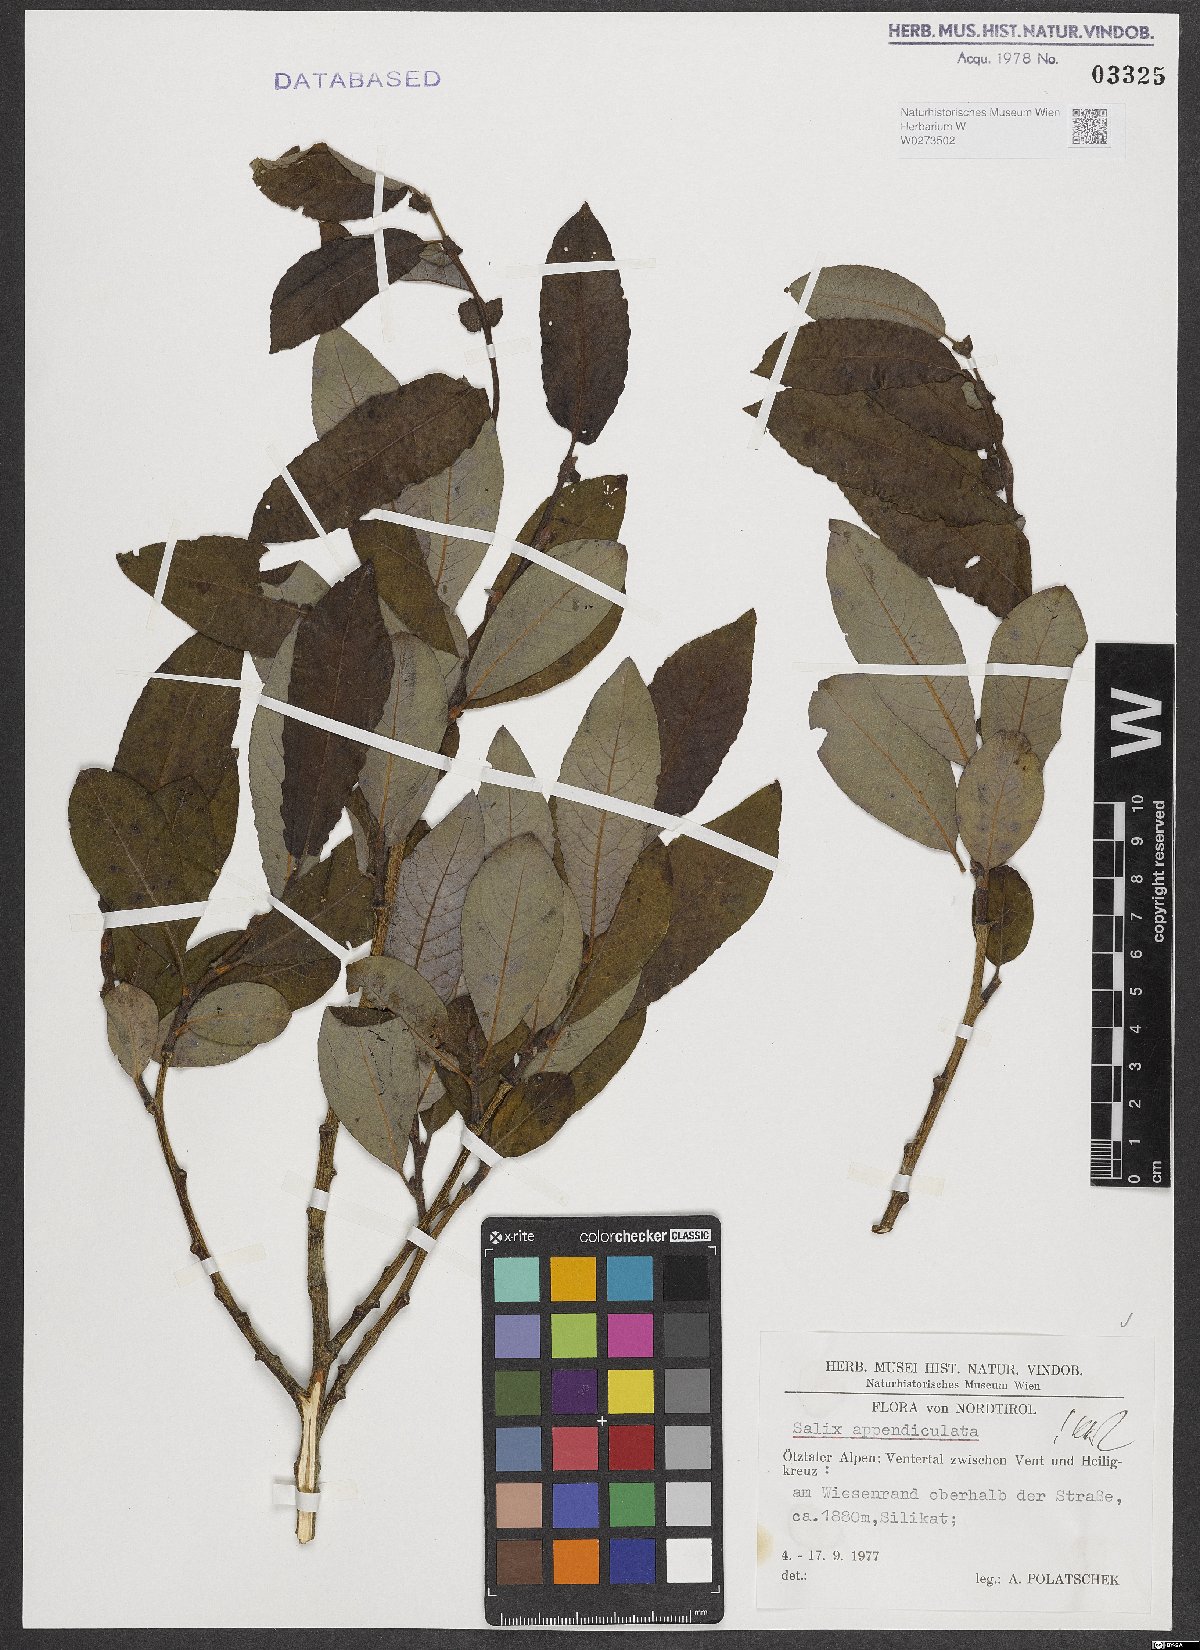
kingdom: Plantae
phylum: Tracheophyta
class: Magnoliopsida
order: Malpighiales
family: Salicaceae
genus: Salix
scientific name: Salix appendiculata
